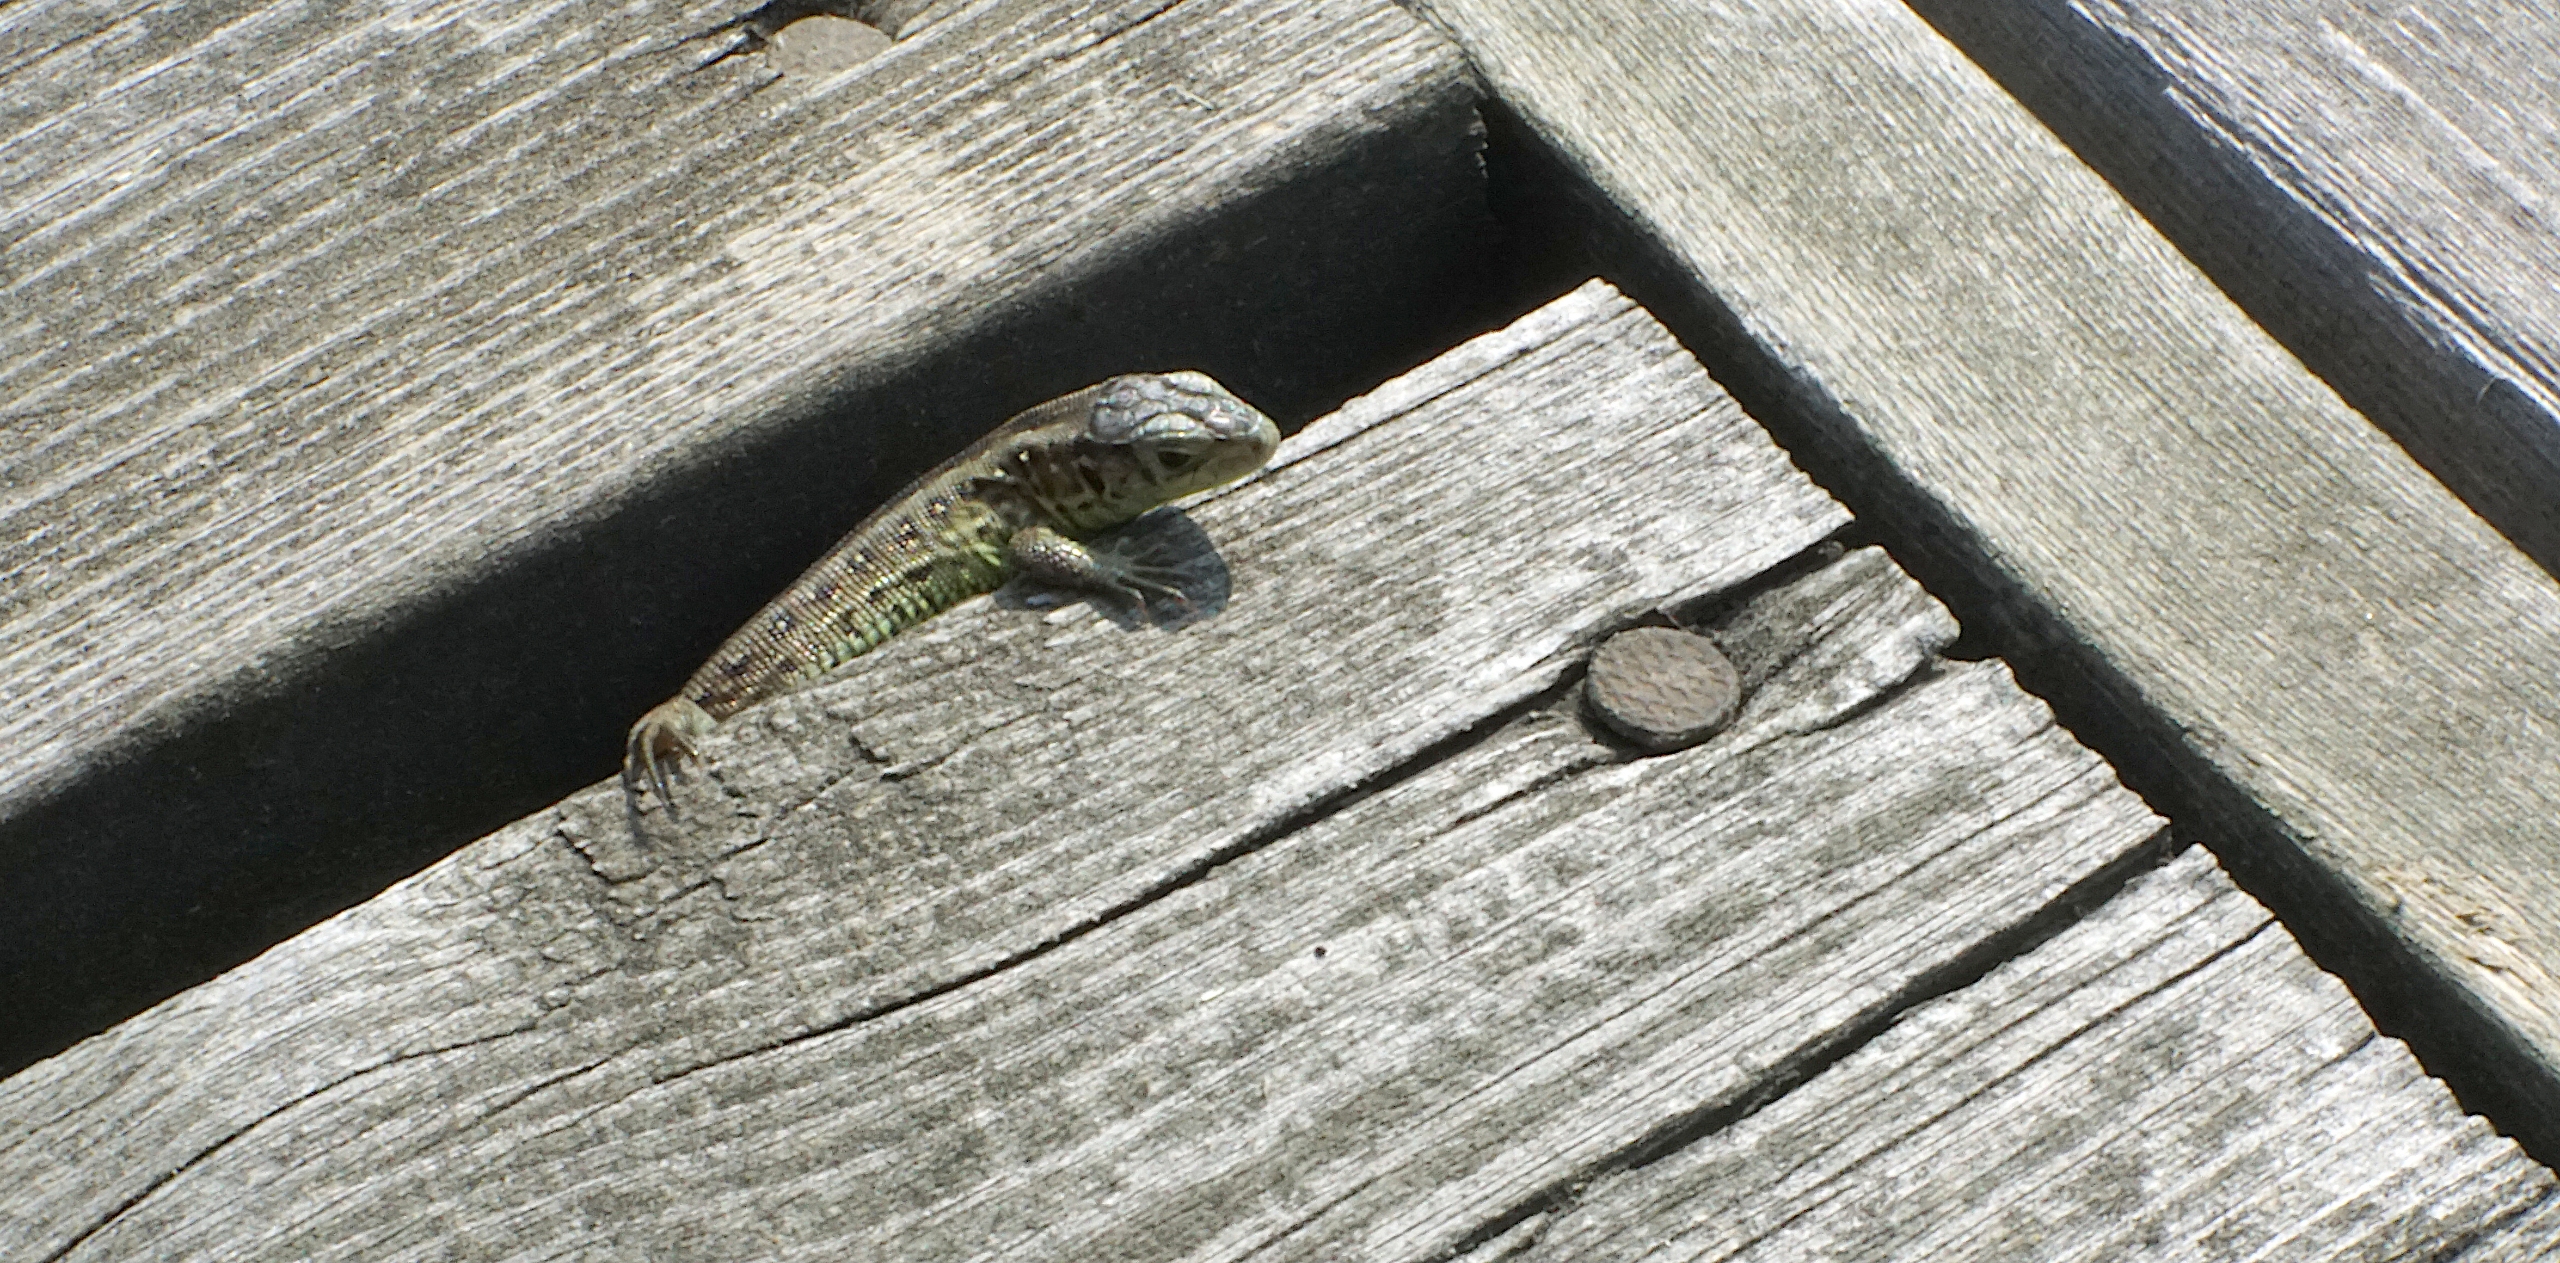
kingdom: Animalia
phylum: Chordata
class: Squamata
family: Lacertidae
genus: Lacerta
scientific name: Lacerta agilis
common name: Markfirben
